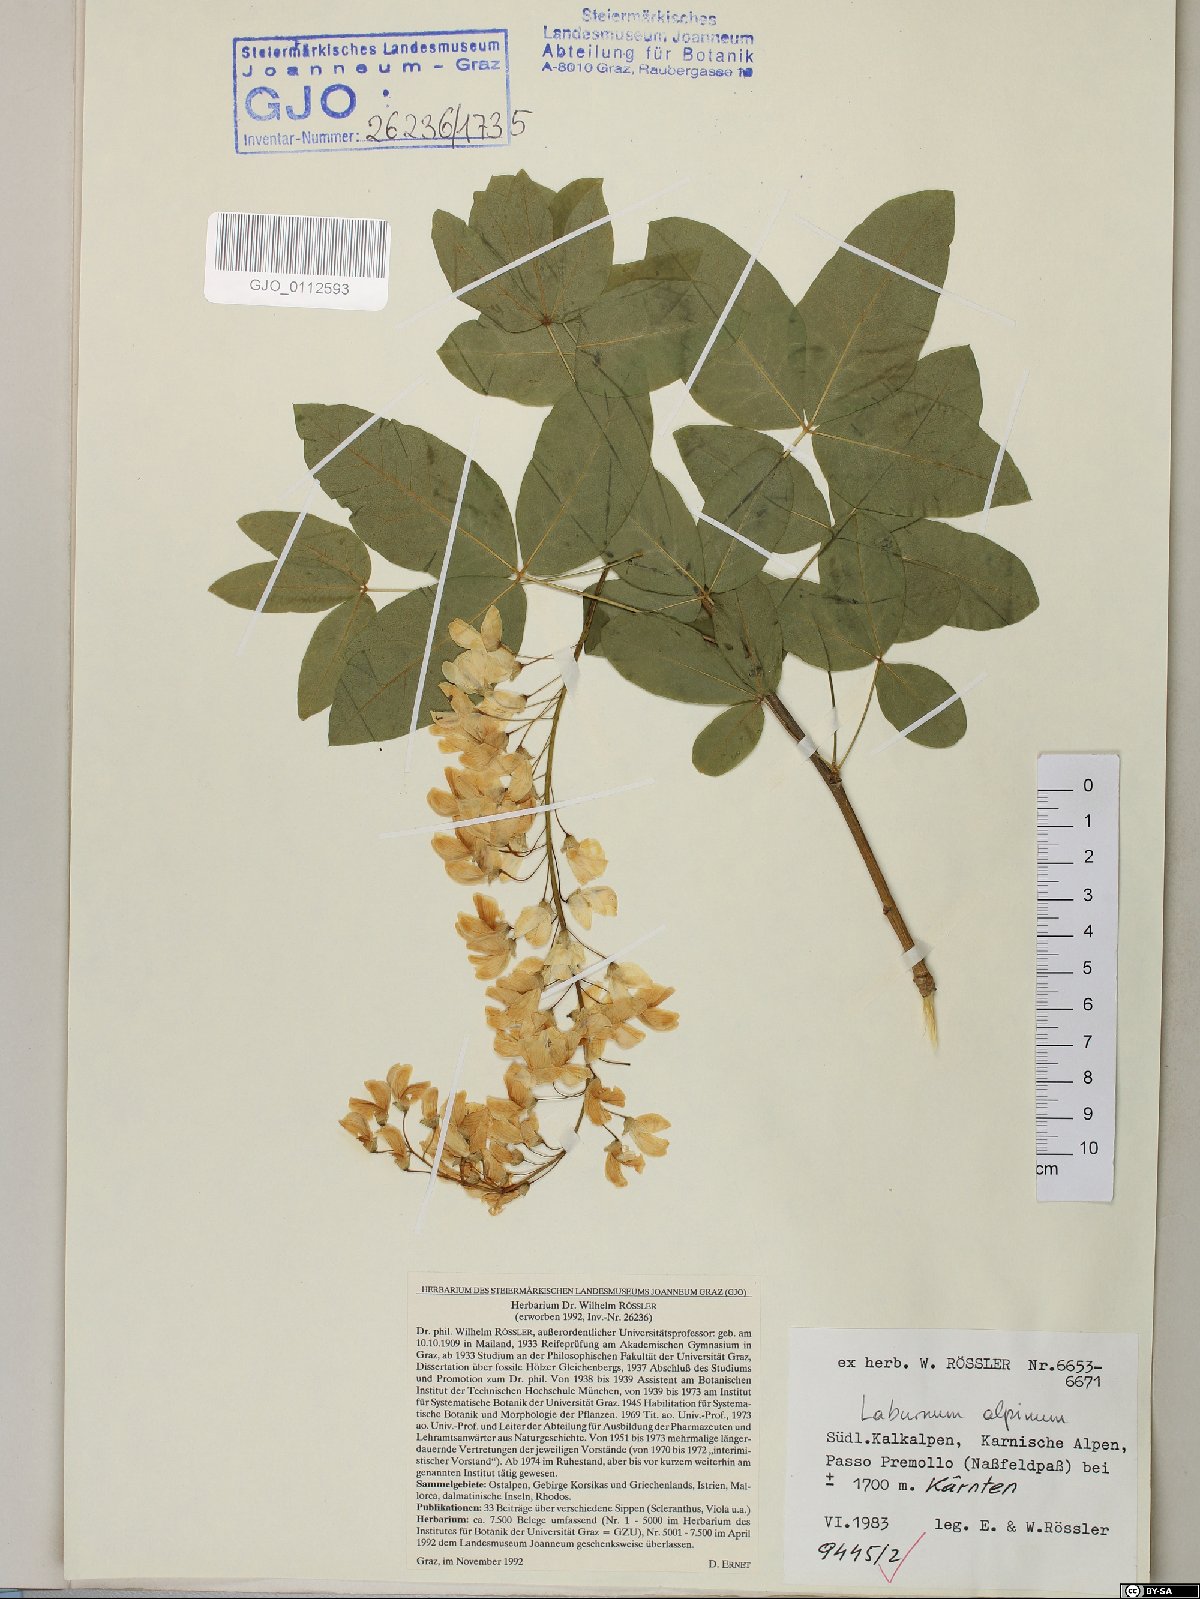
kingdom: Plantae
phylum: Tracheophyta
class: Magnoliopsida
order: Fabales
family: Fabaceae
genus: Laburnum
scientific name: Laburnum alpinum
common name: Scottish laburnum
